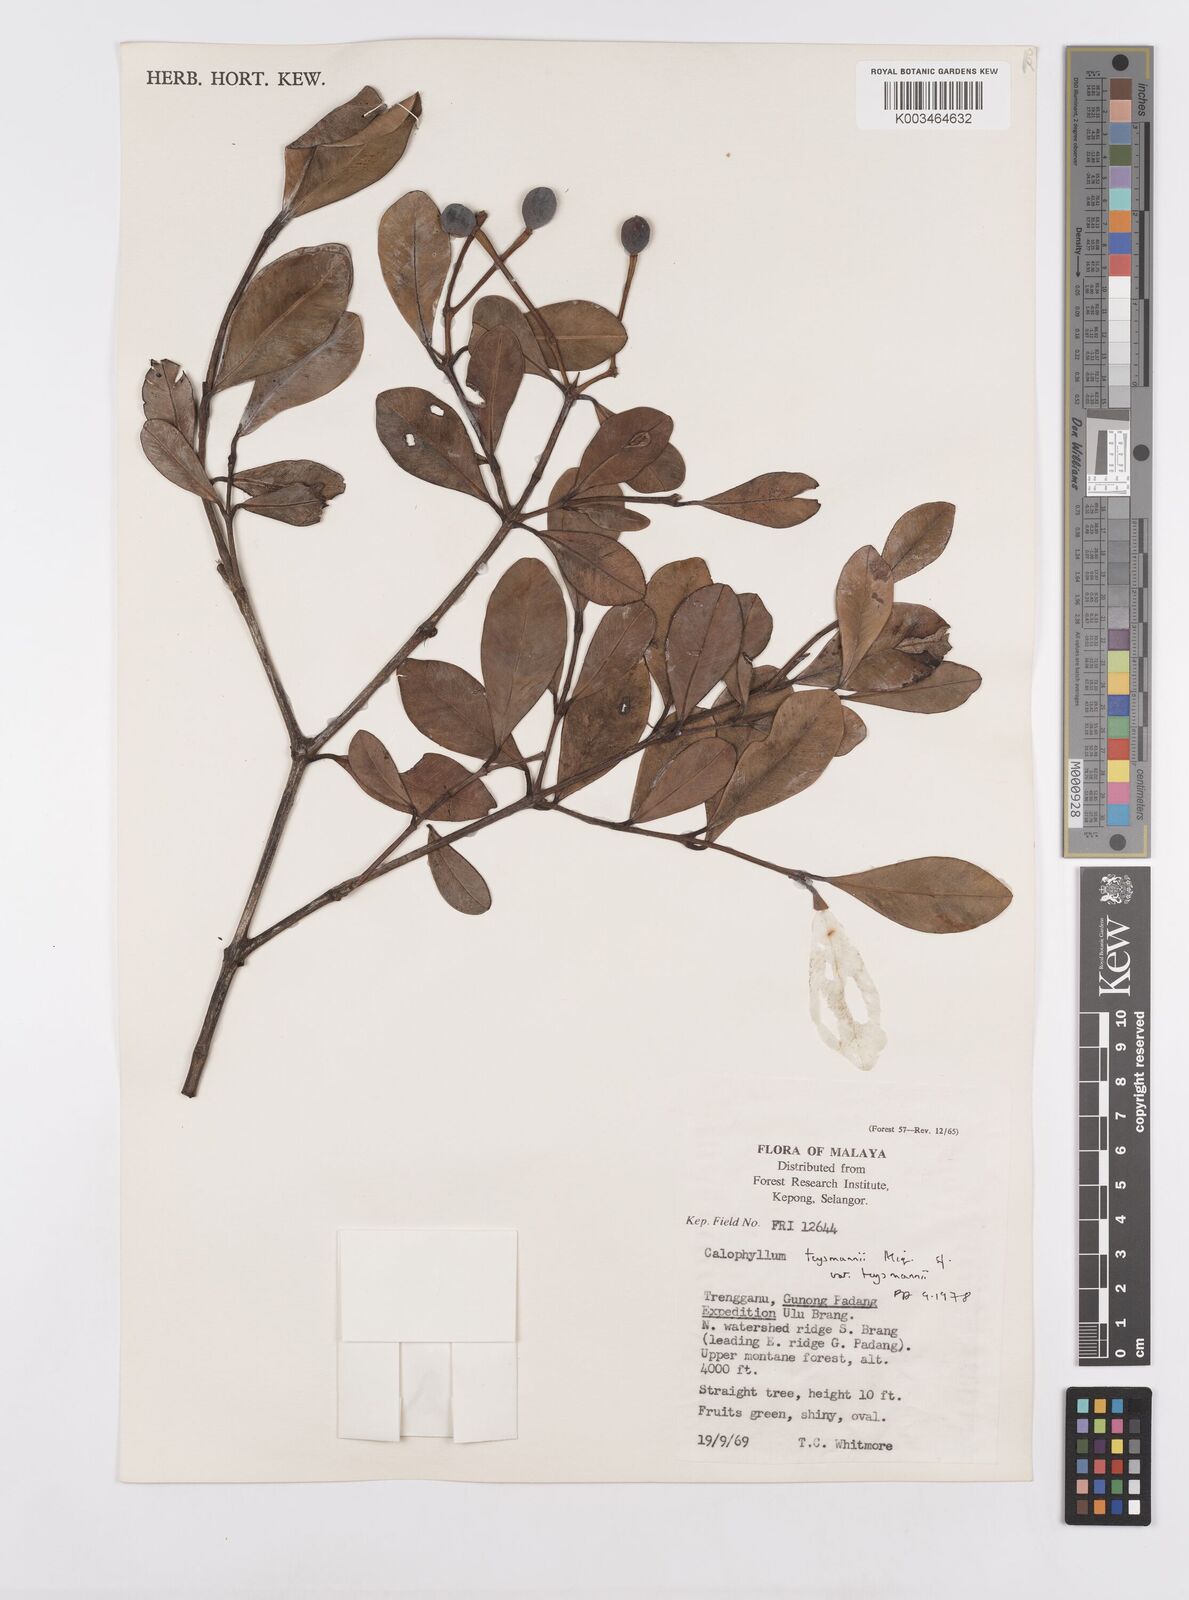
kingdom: Plantae
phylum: Tracheophyta
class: Magnoliopsida
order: Malpighiales
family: Calophyllaceae
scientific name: Calophyllaceae
